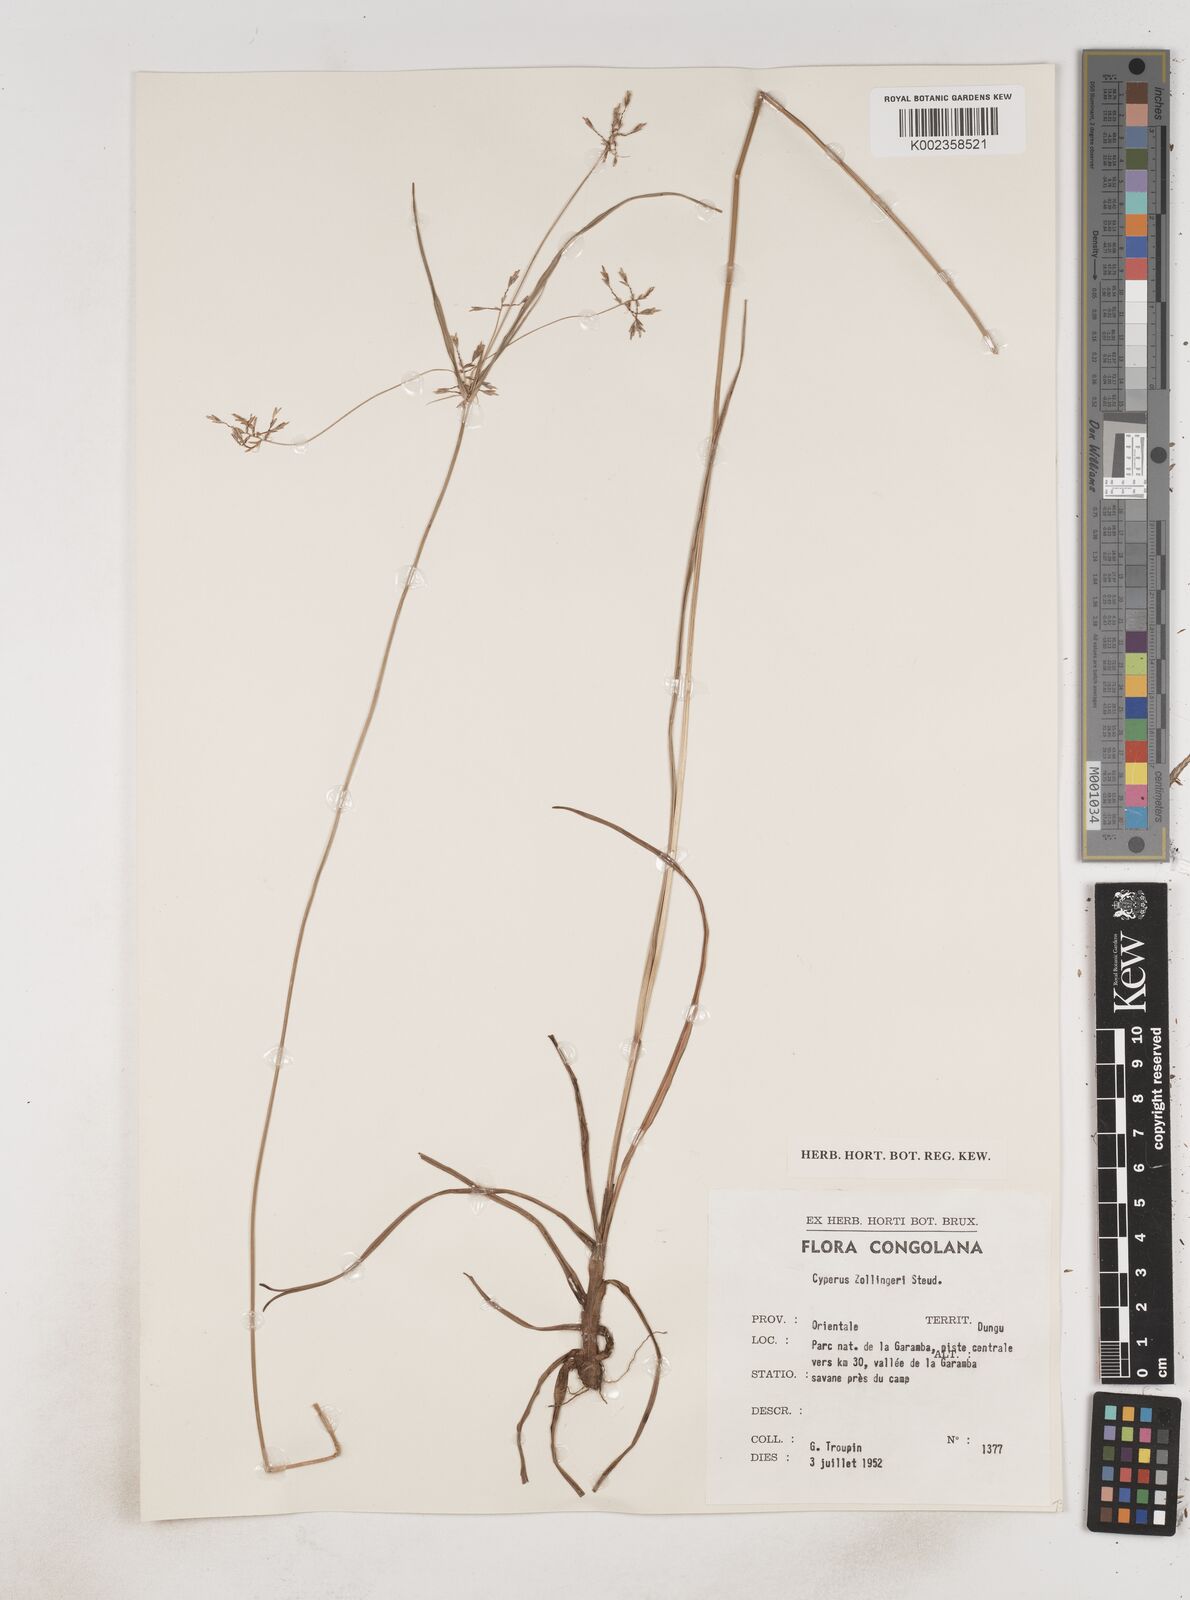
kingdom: Plantae
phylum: Tracheophyta
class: Liliopsida
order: Poales
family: Cyperaceae
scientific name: Cyperaceae
